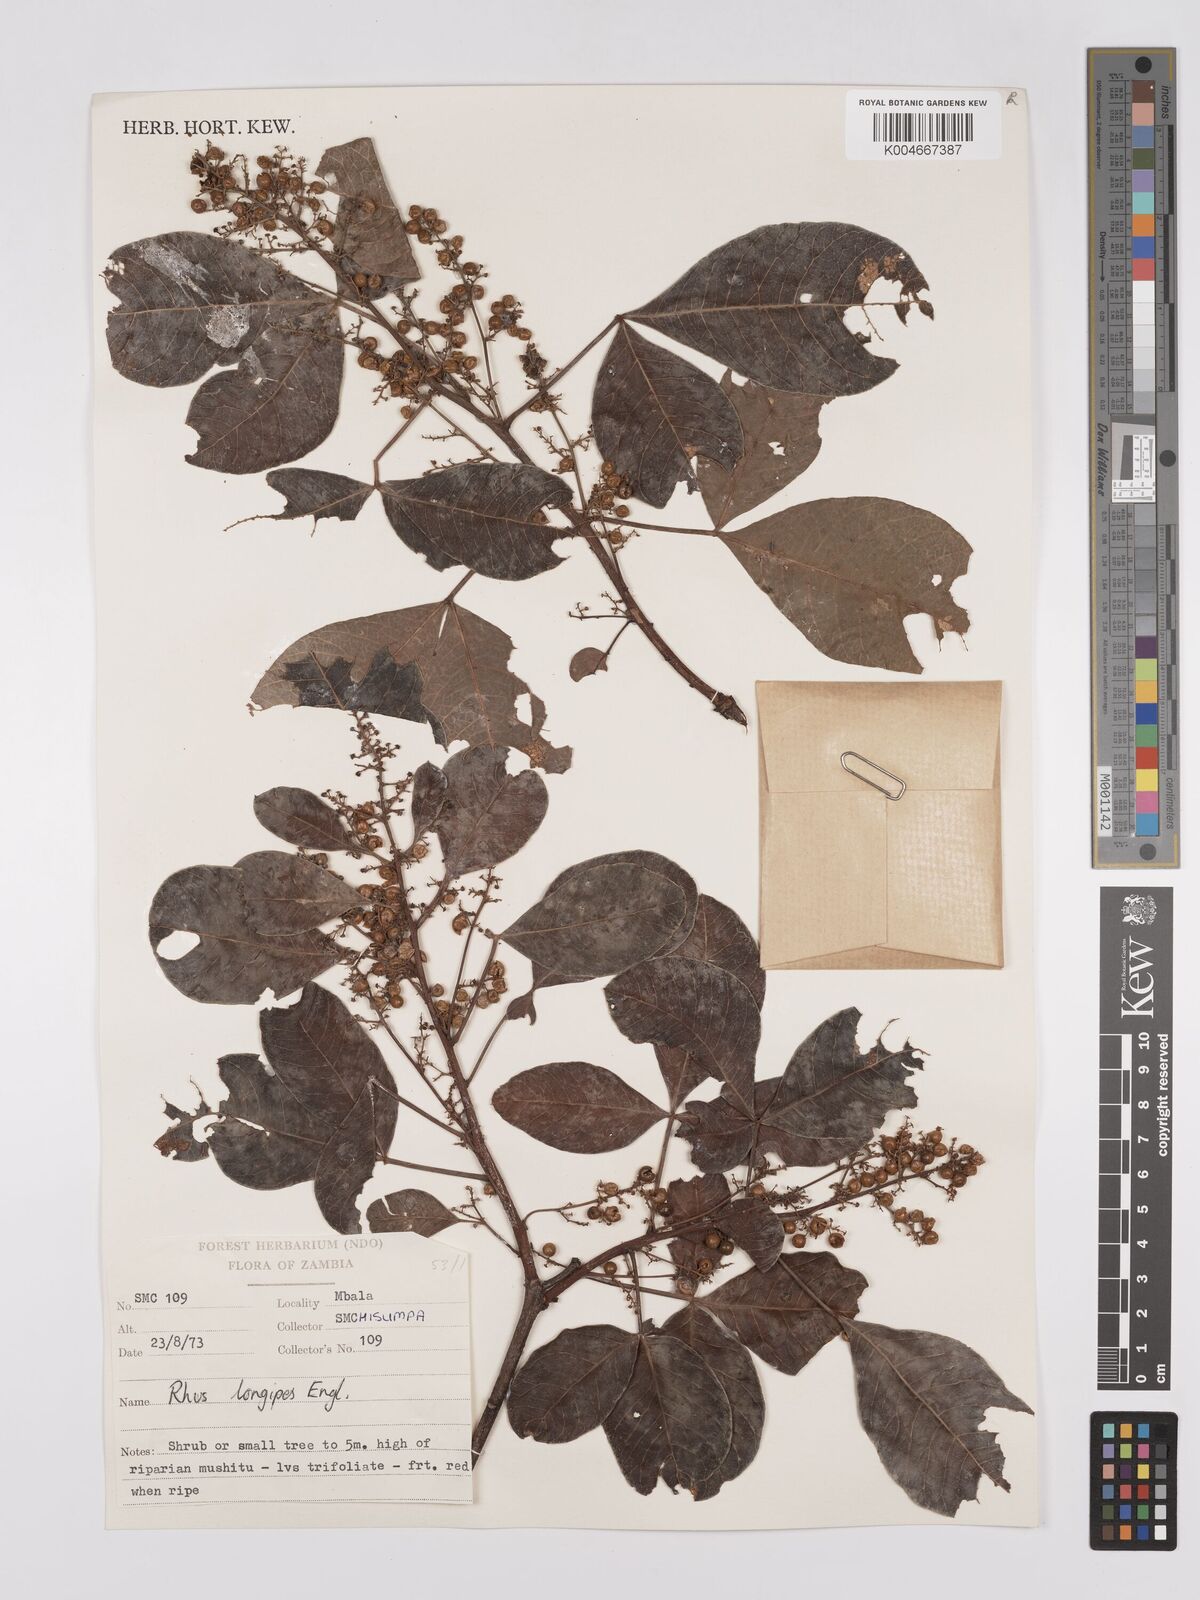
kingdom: Plantae
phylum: Tracheophyta
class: Magnoliopsida
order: Sapindales
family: Anacardiaceae
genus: Searsia
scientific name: Searsia longipes
